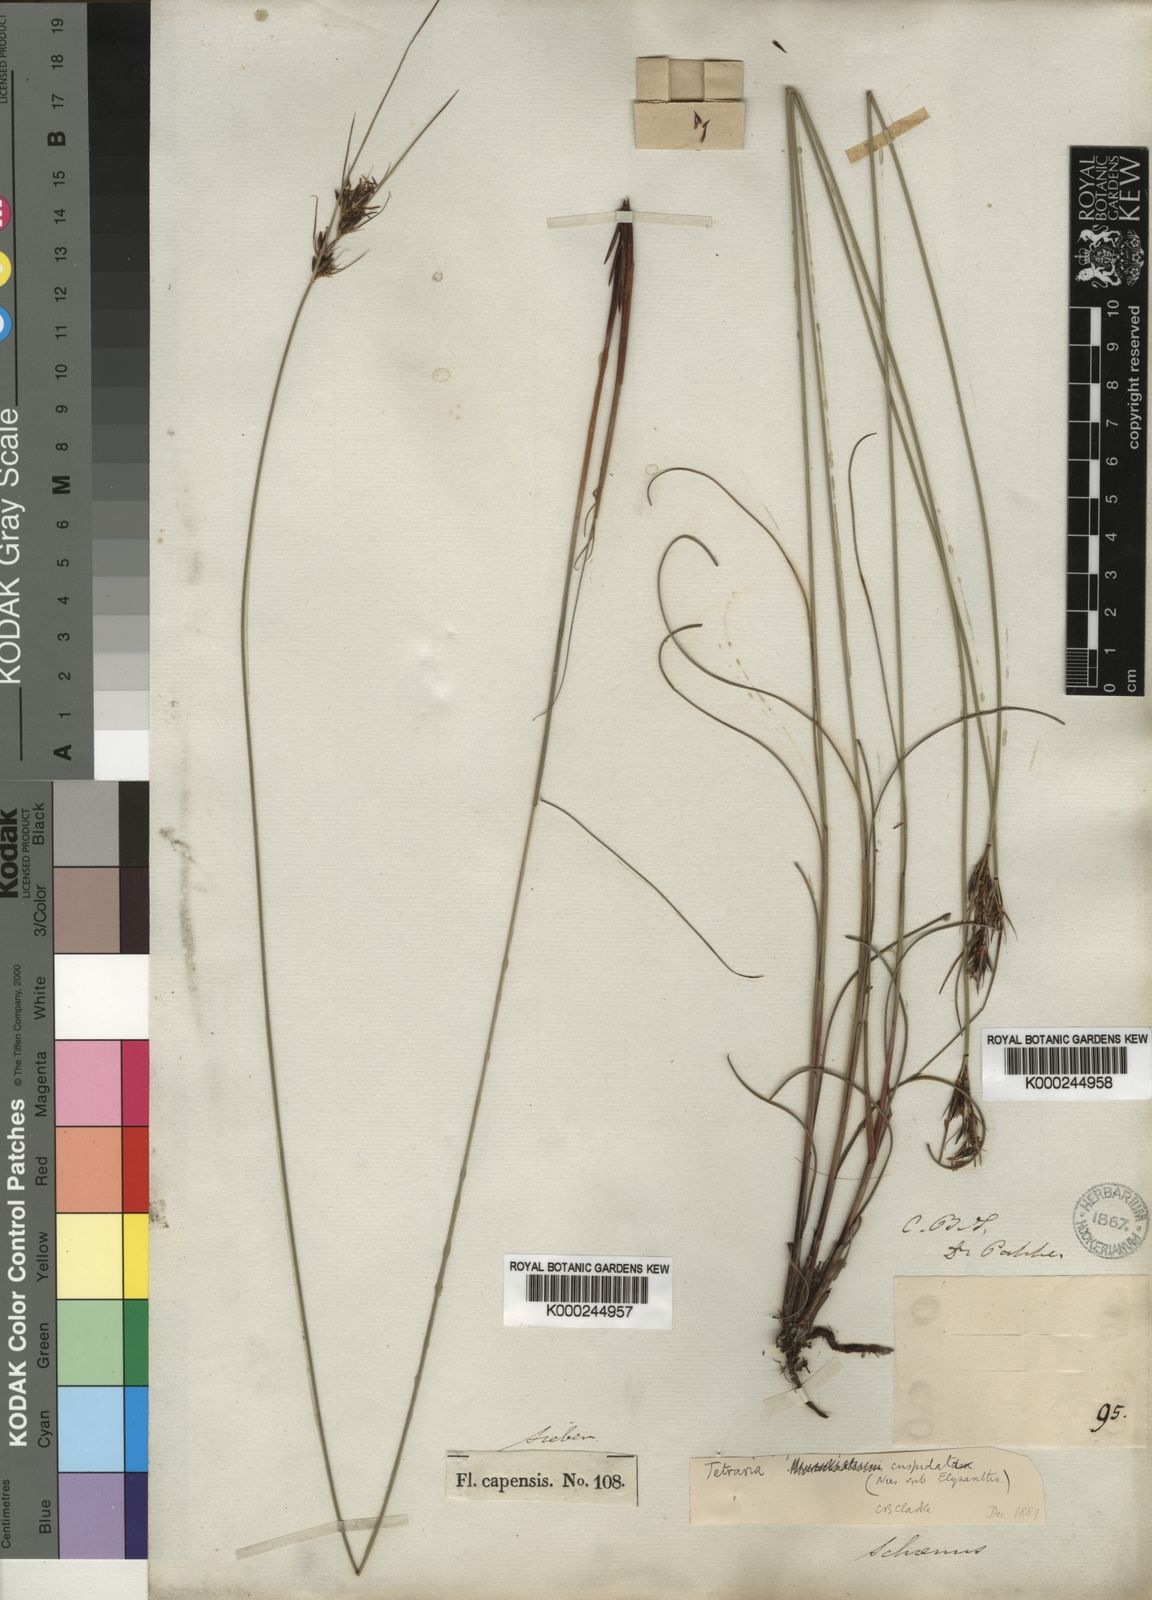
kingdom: Plantae
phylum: Tracheophyta
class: Liliopsida
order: Poales
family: Cyperaceae
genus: Schoenus
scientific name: Schoenus exilis
